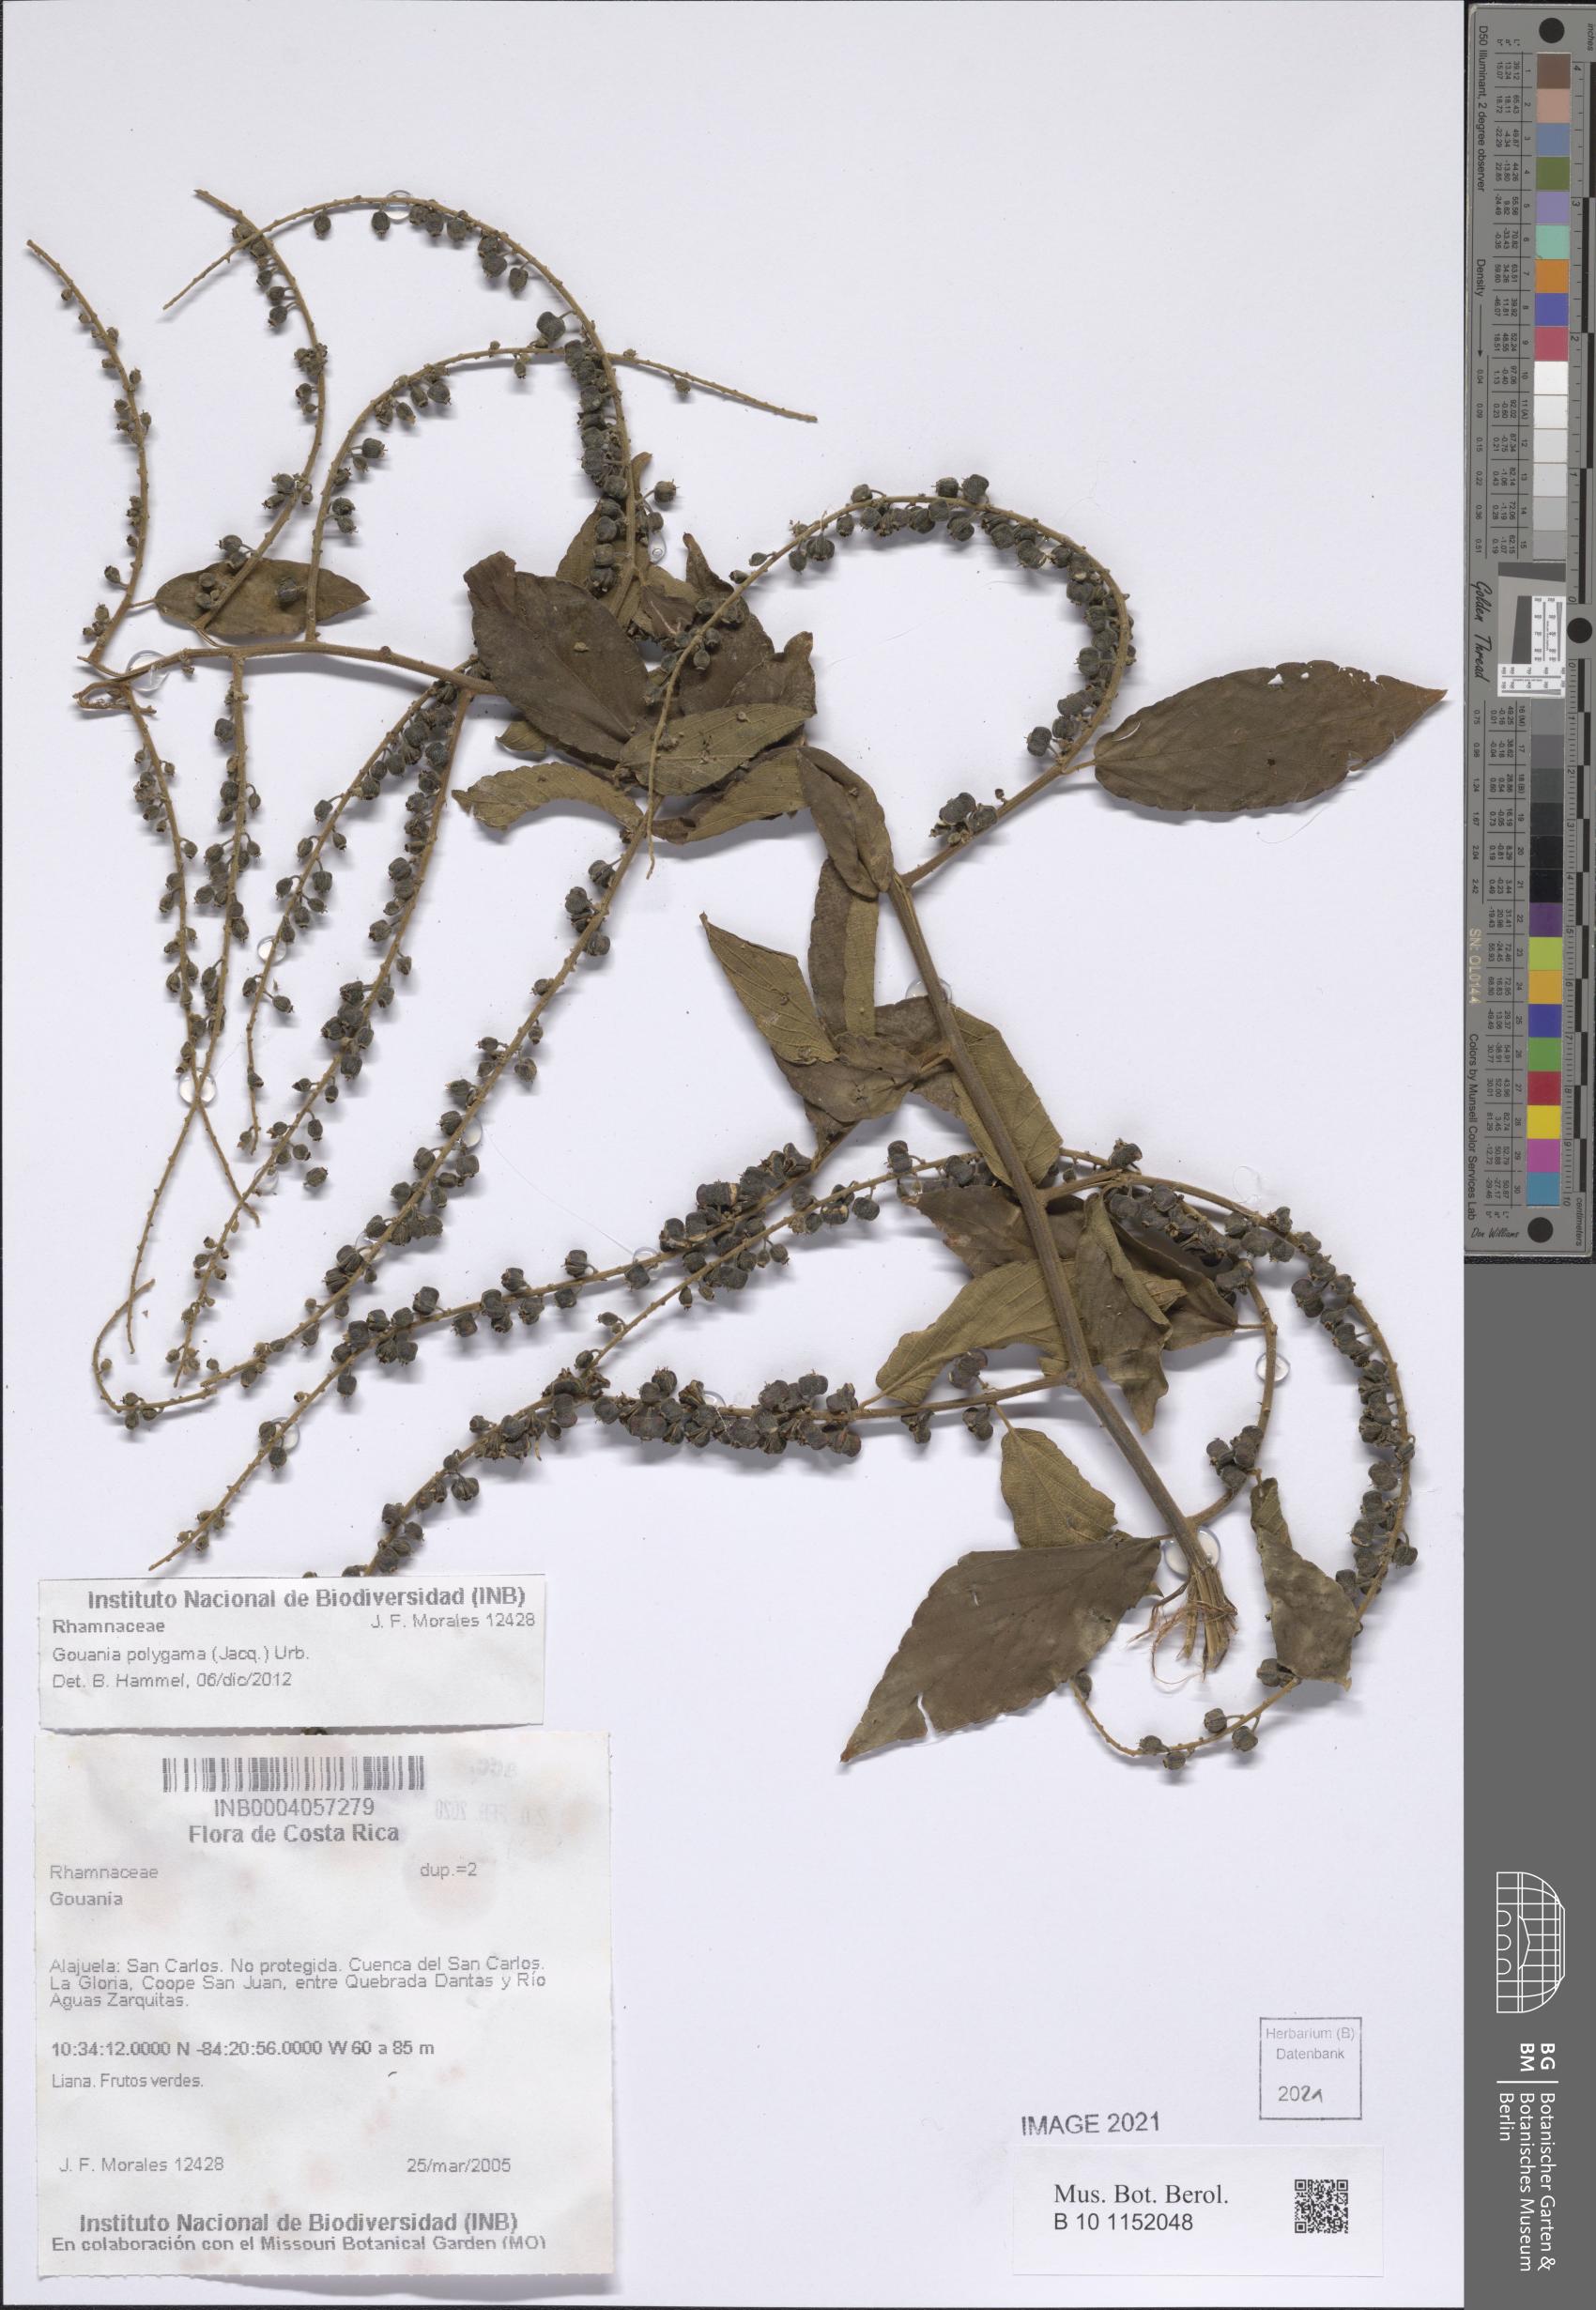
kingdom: Plantae
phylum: Tracheophyta
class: Magnoliopsida
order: Rosales
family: Rhamnaceae
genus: Gouania
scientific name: Gouania polygama
